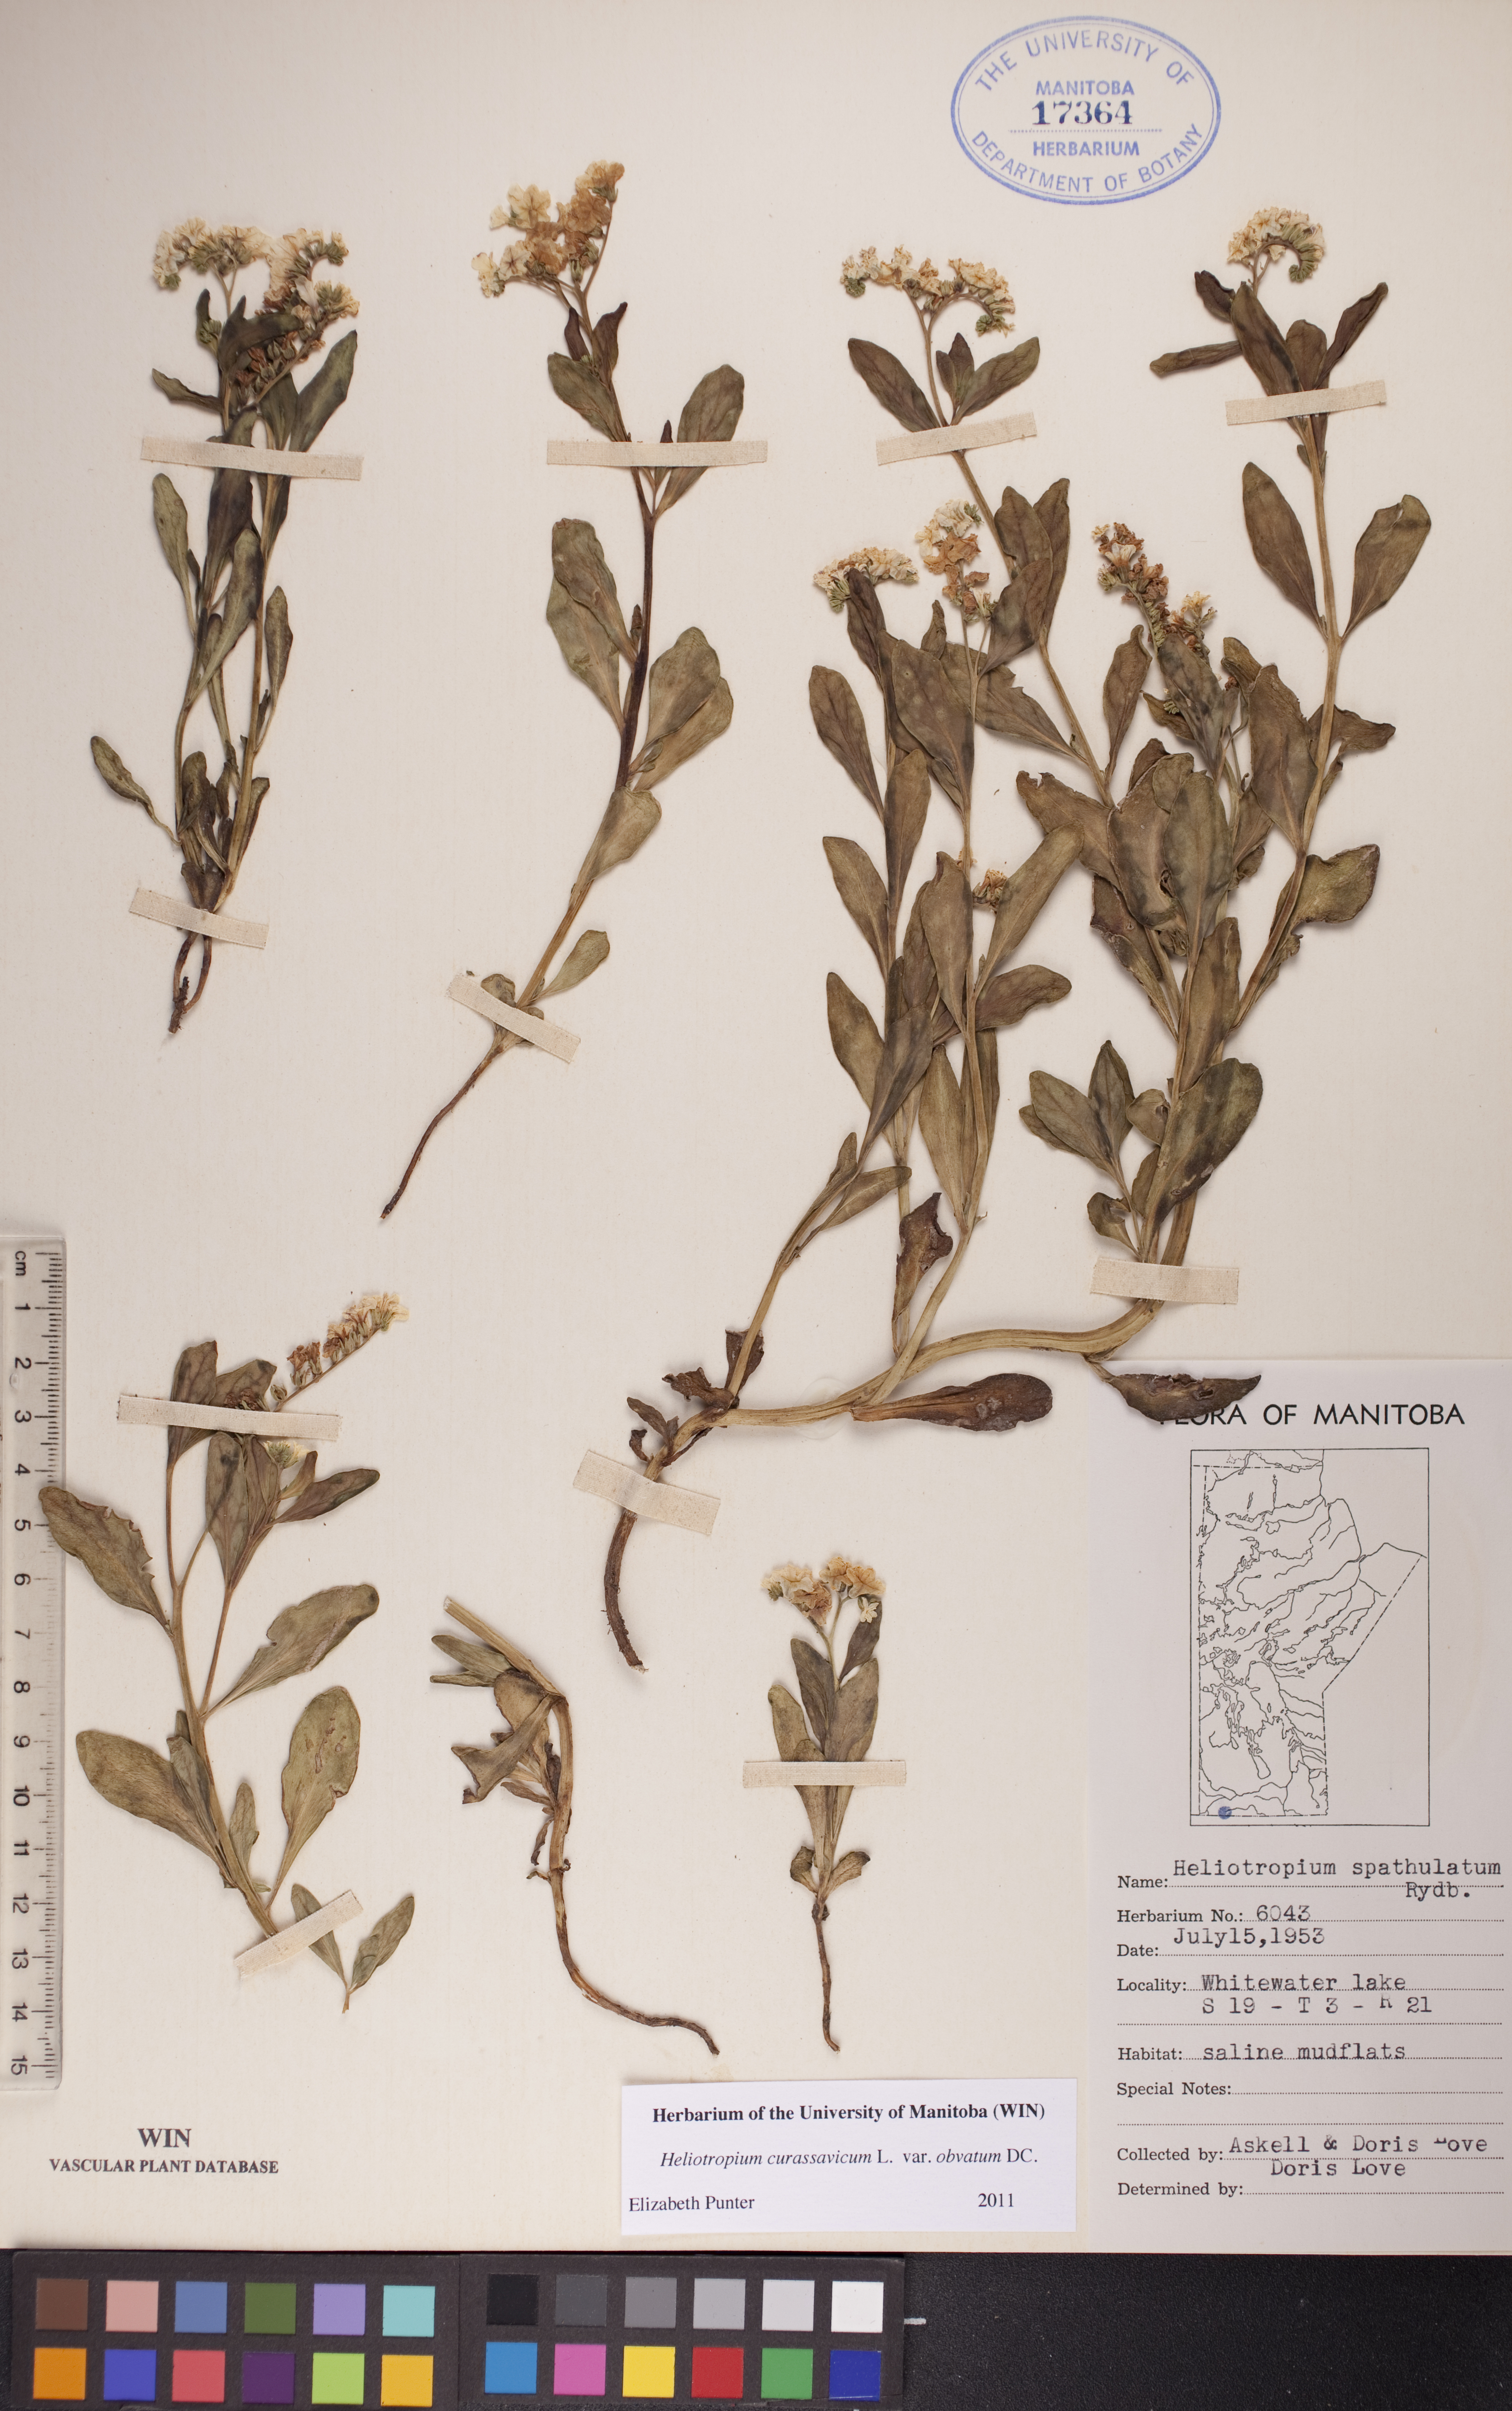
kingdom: Plantae
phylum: Tracheophyta
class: Magnoliopsida
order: Boraginales
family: Heliotropiaceae
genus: Heliotropium
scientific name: Heliotropium curassavicum
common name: Seaside heliotrope
